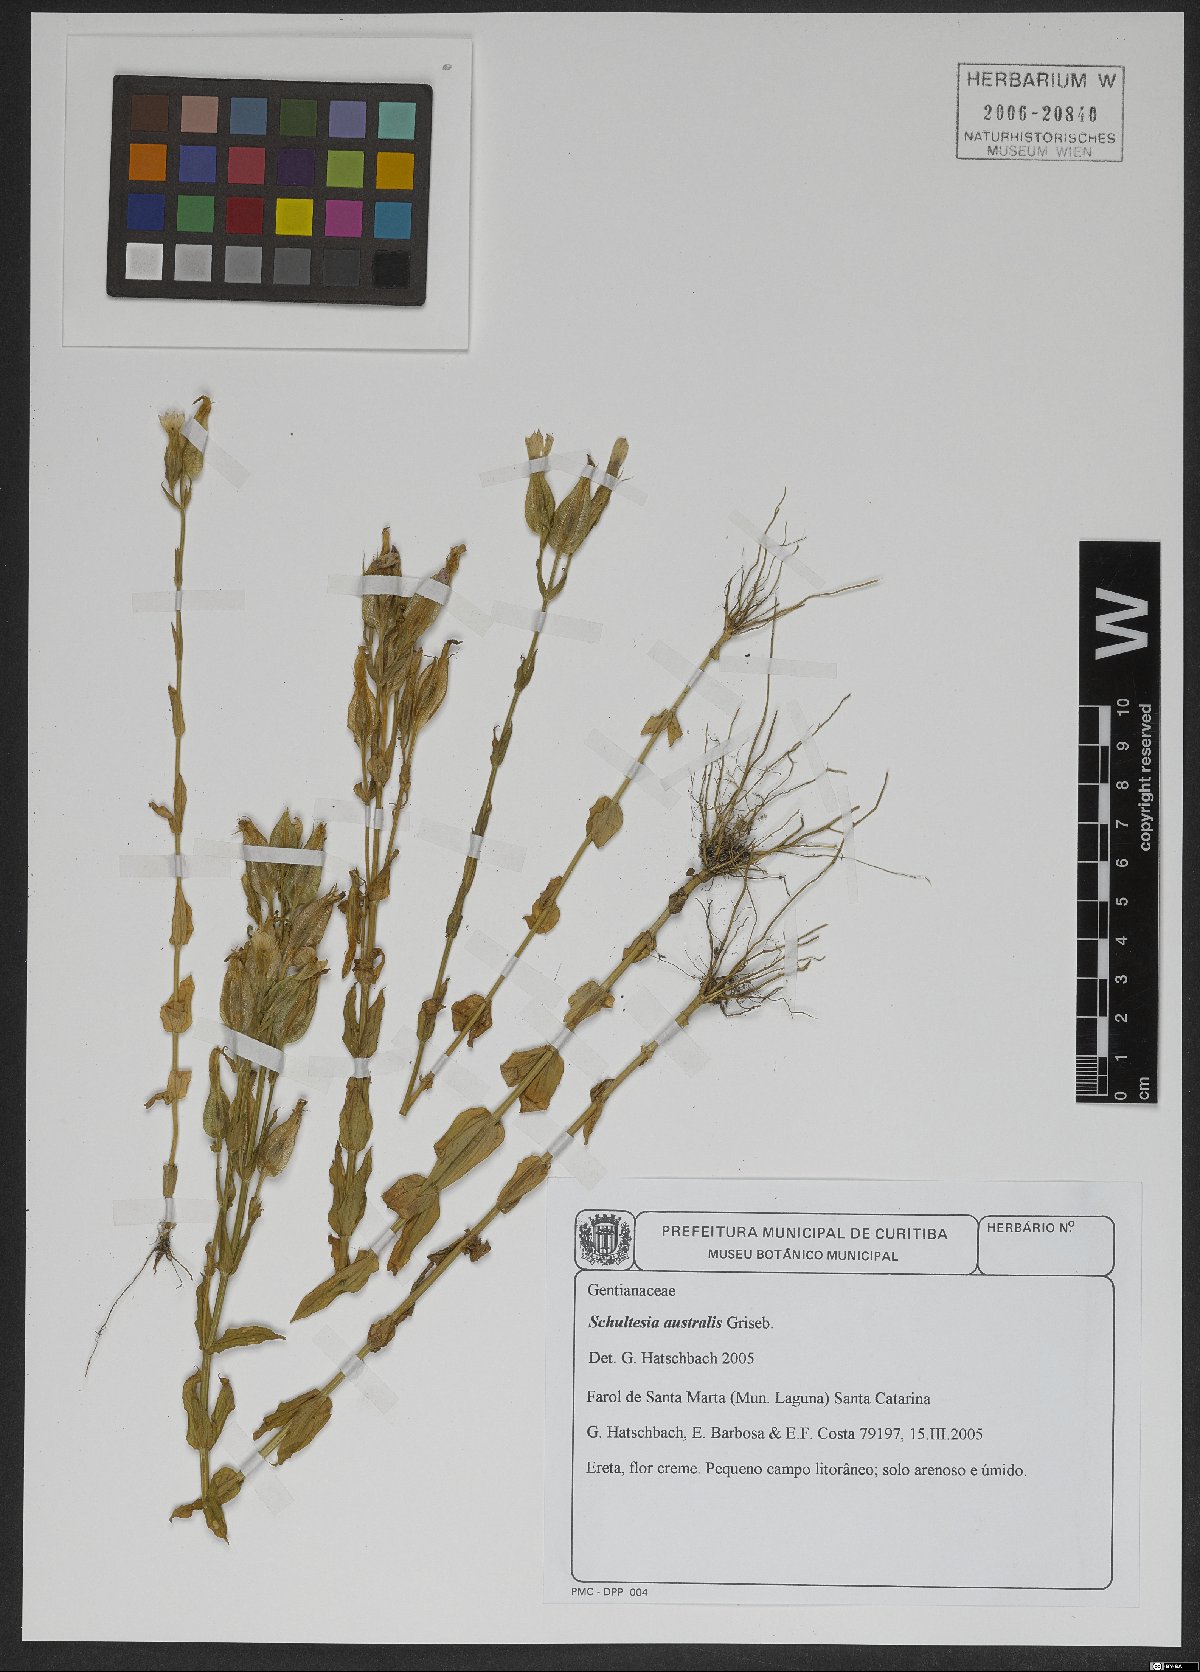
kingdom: Plantae
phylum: Tracheophyta
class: Magnoliopsida
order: Gentianales
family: Gentianaceae
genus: Schultesia
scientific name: Schultesia australis
